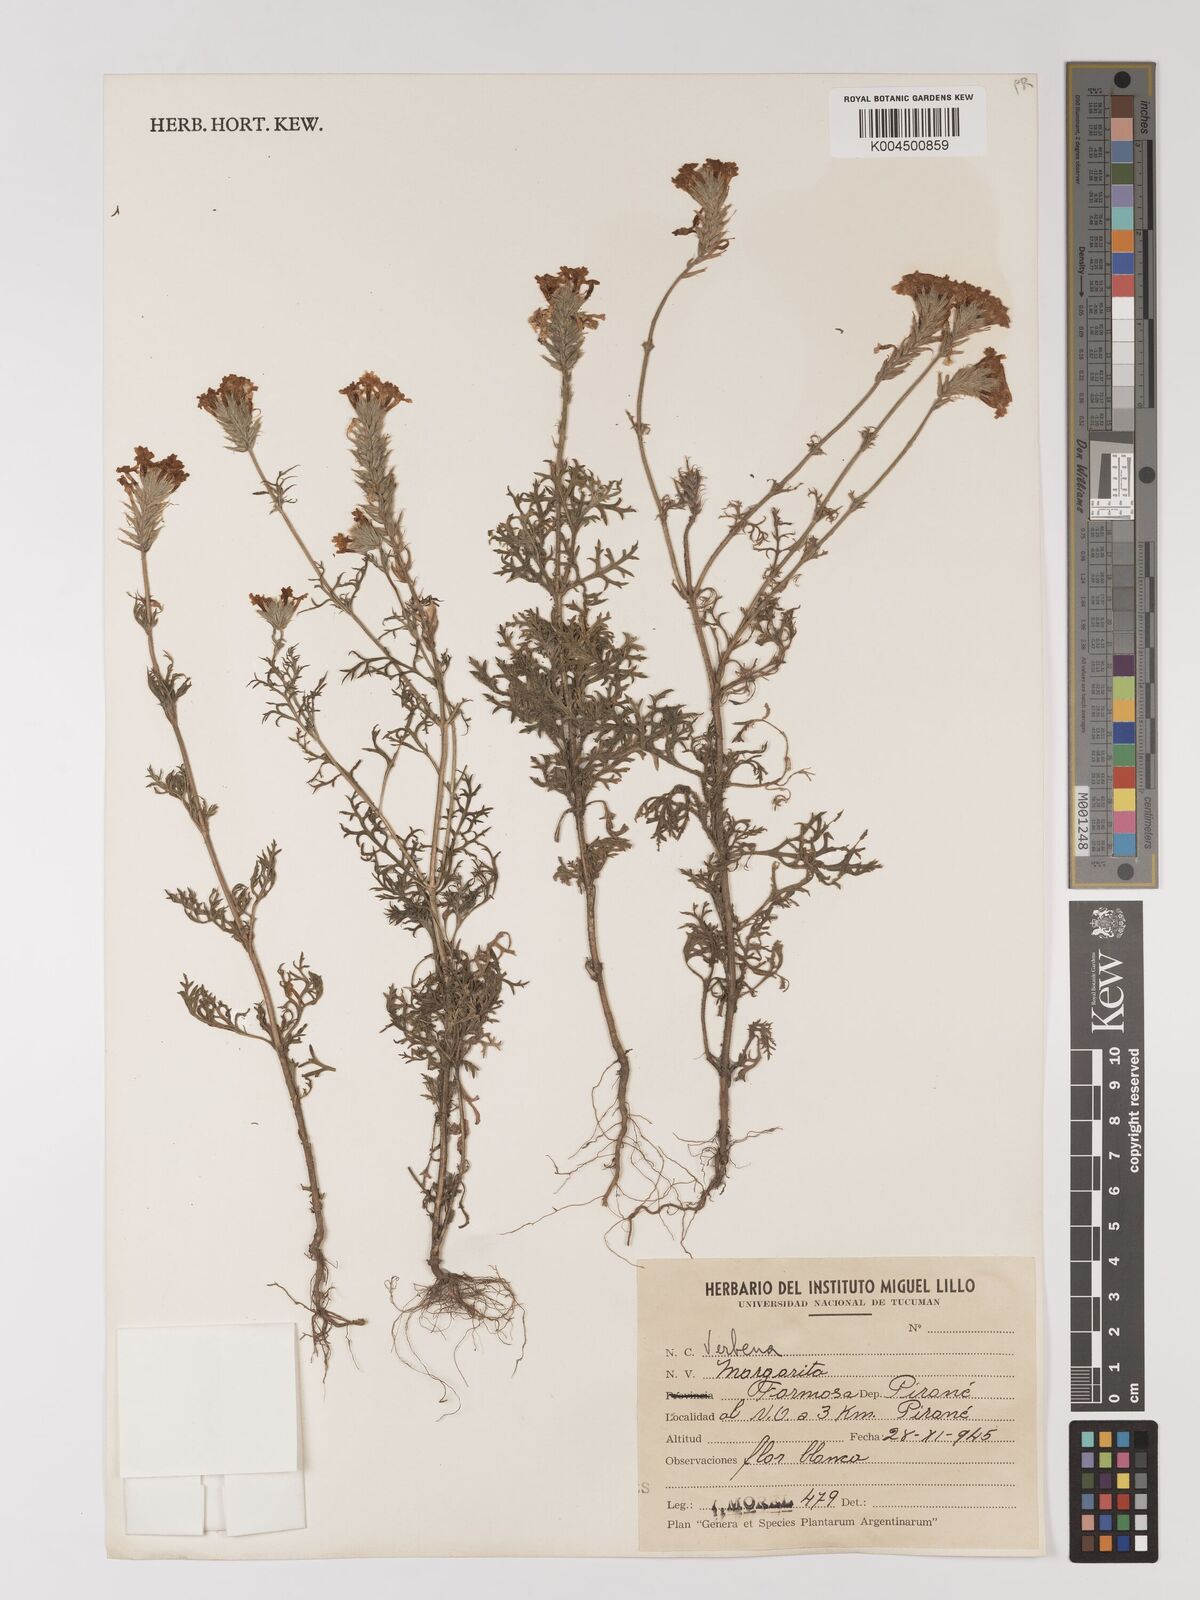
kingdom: Plantae
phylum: Tracheophyta
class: Magnoliopsida
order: Lamiales
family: Verbenaceae
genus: Verbena
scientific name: Verbena
